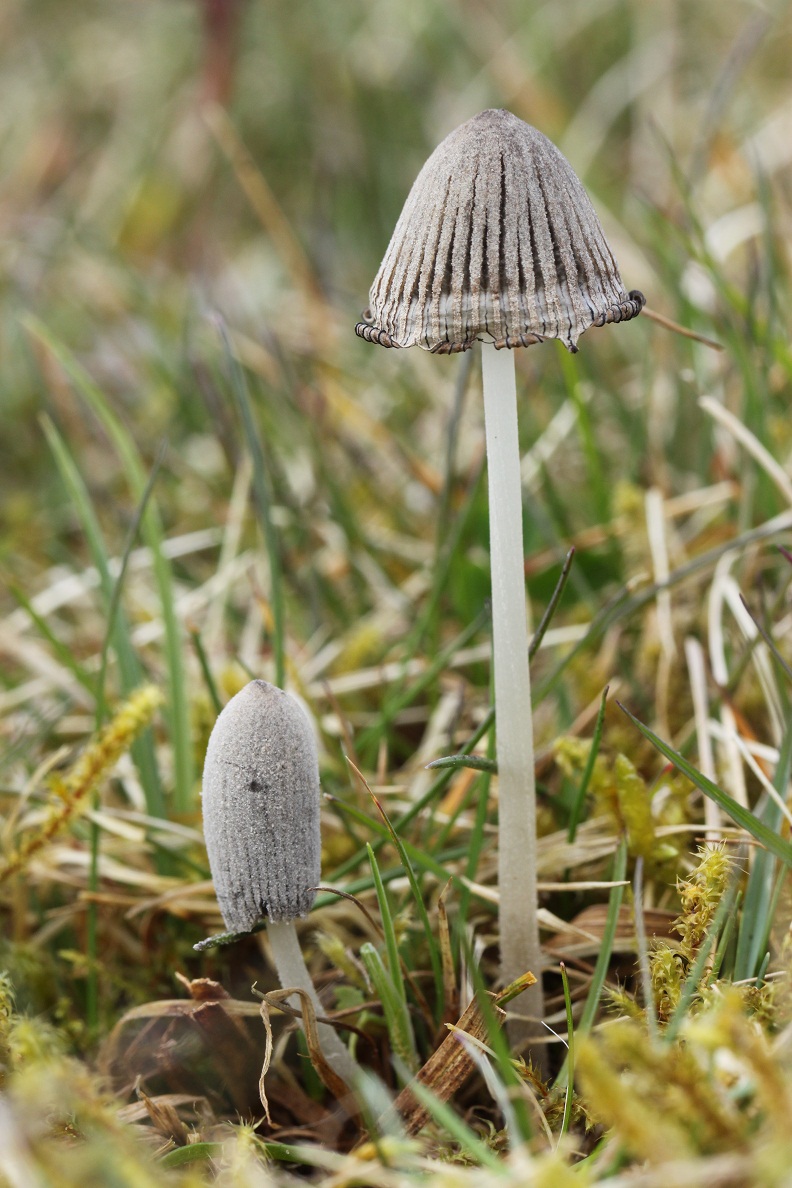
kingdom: Fungi
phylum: Basidiomycota
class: Agaricomycetes
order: Agaricales
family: Psathyrellaceae
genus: Coprinopsis
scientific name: Coprinopsis martinii
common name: rigkær-blækhat
